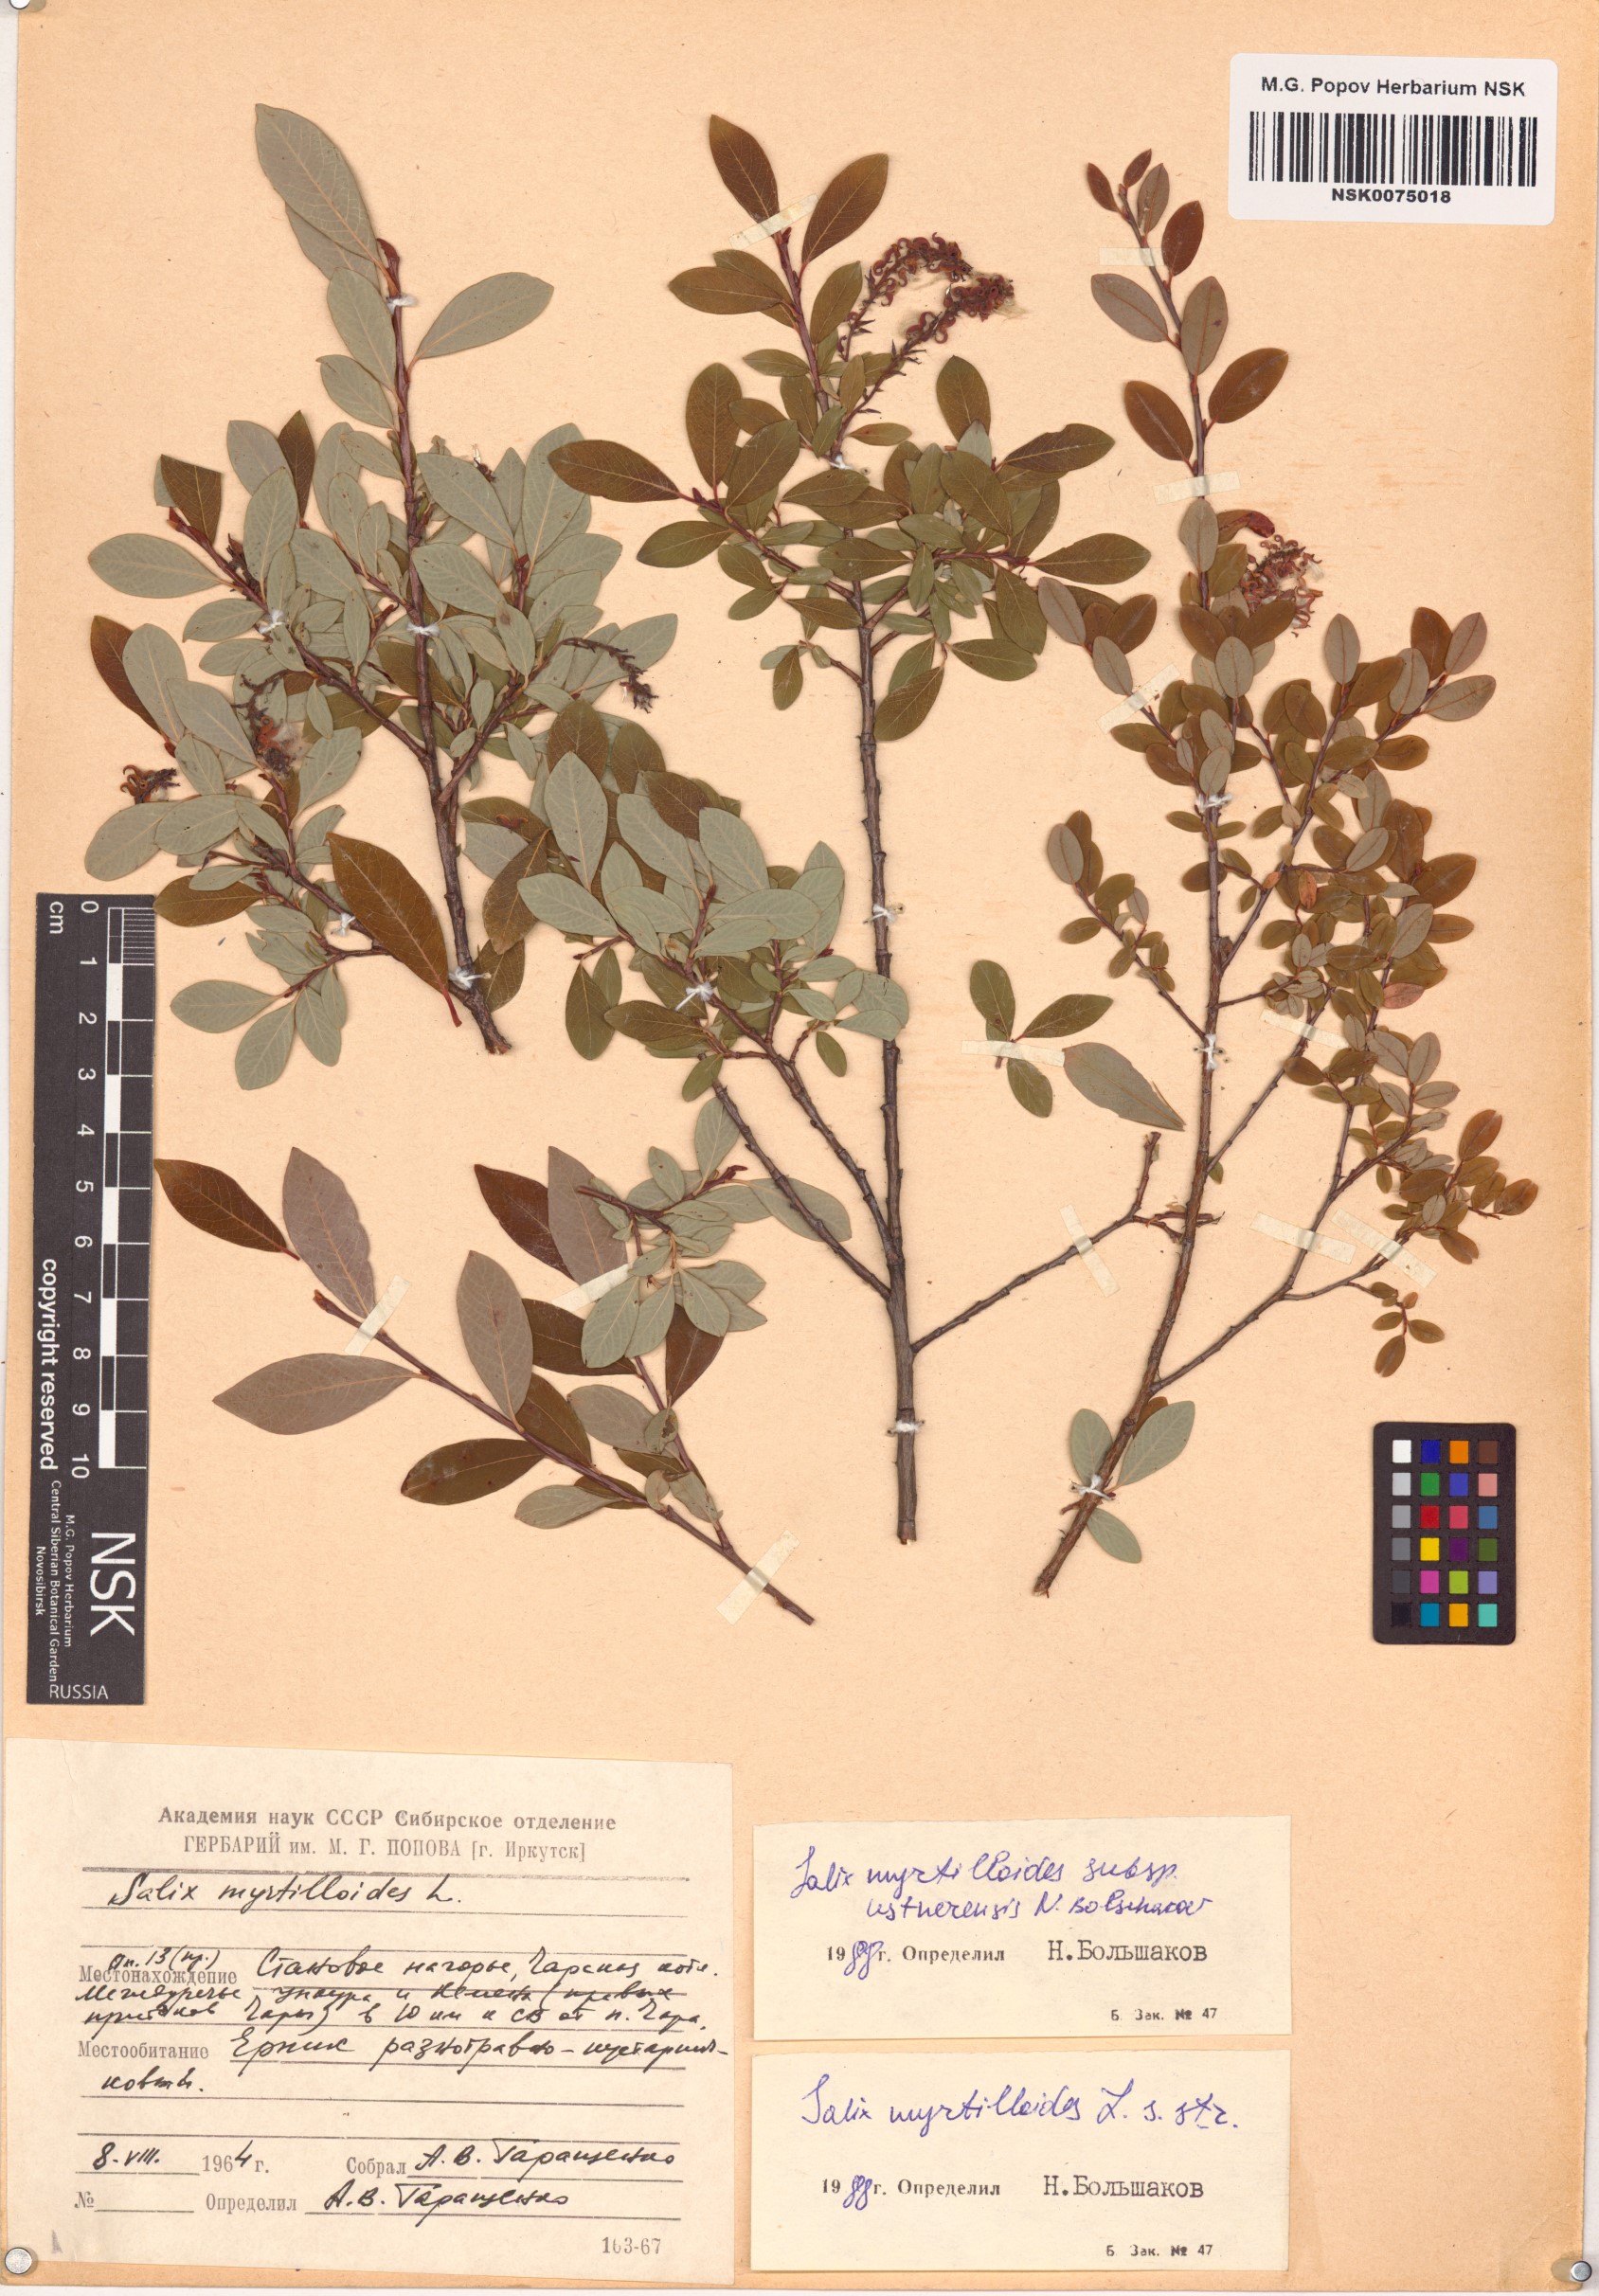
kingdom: Plantae
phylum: Tracheophyta
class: Magnoliopsida
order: Malpighiales
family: Salicaceae
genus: Salix
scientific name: Salix ustnerensis
